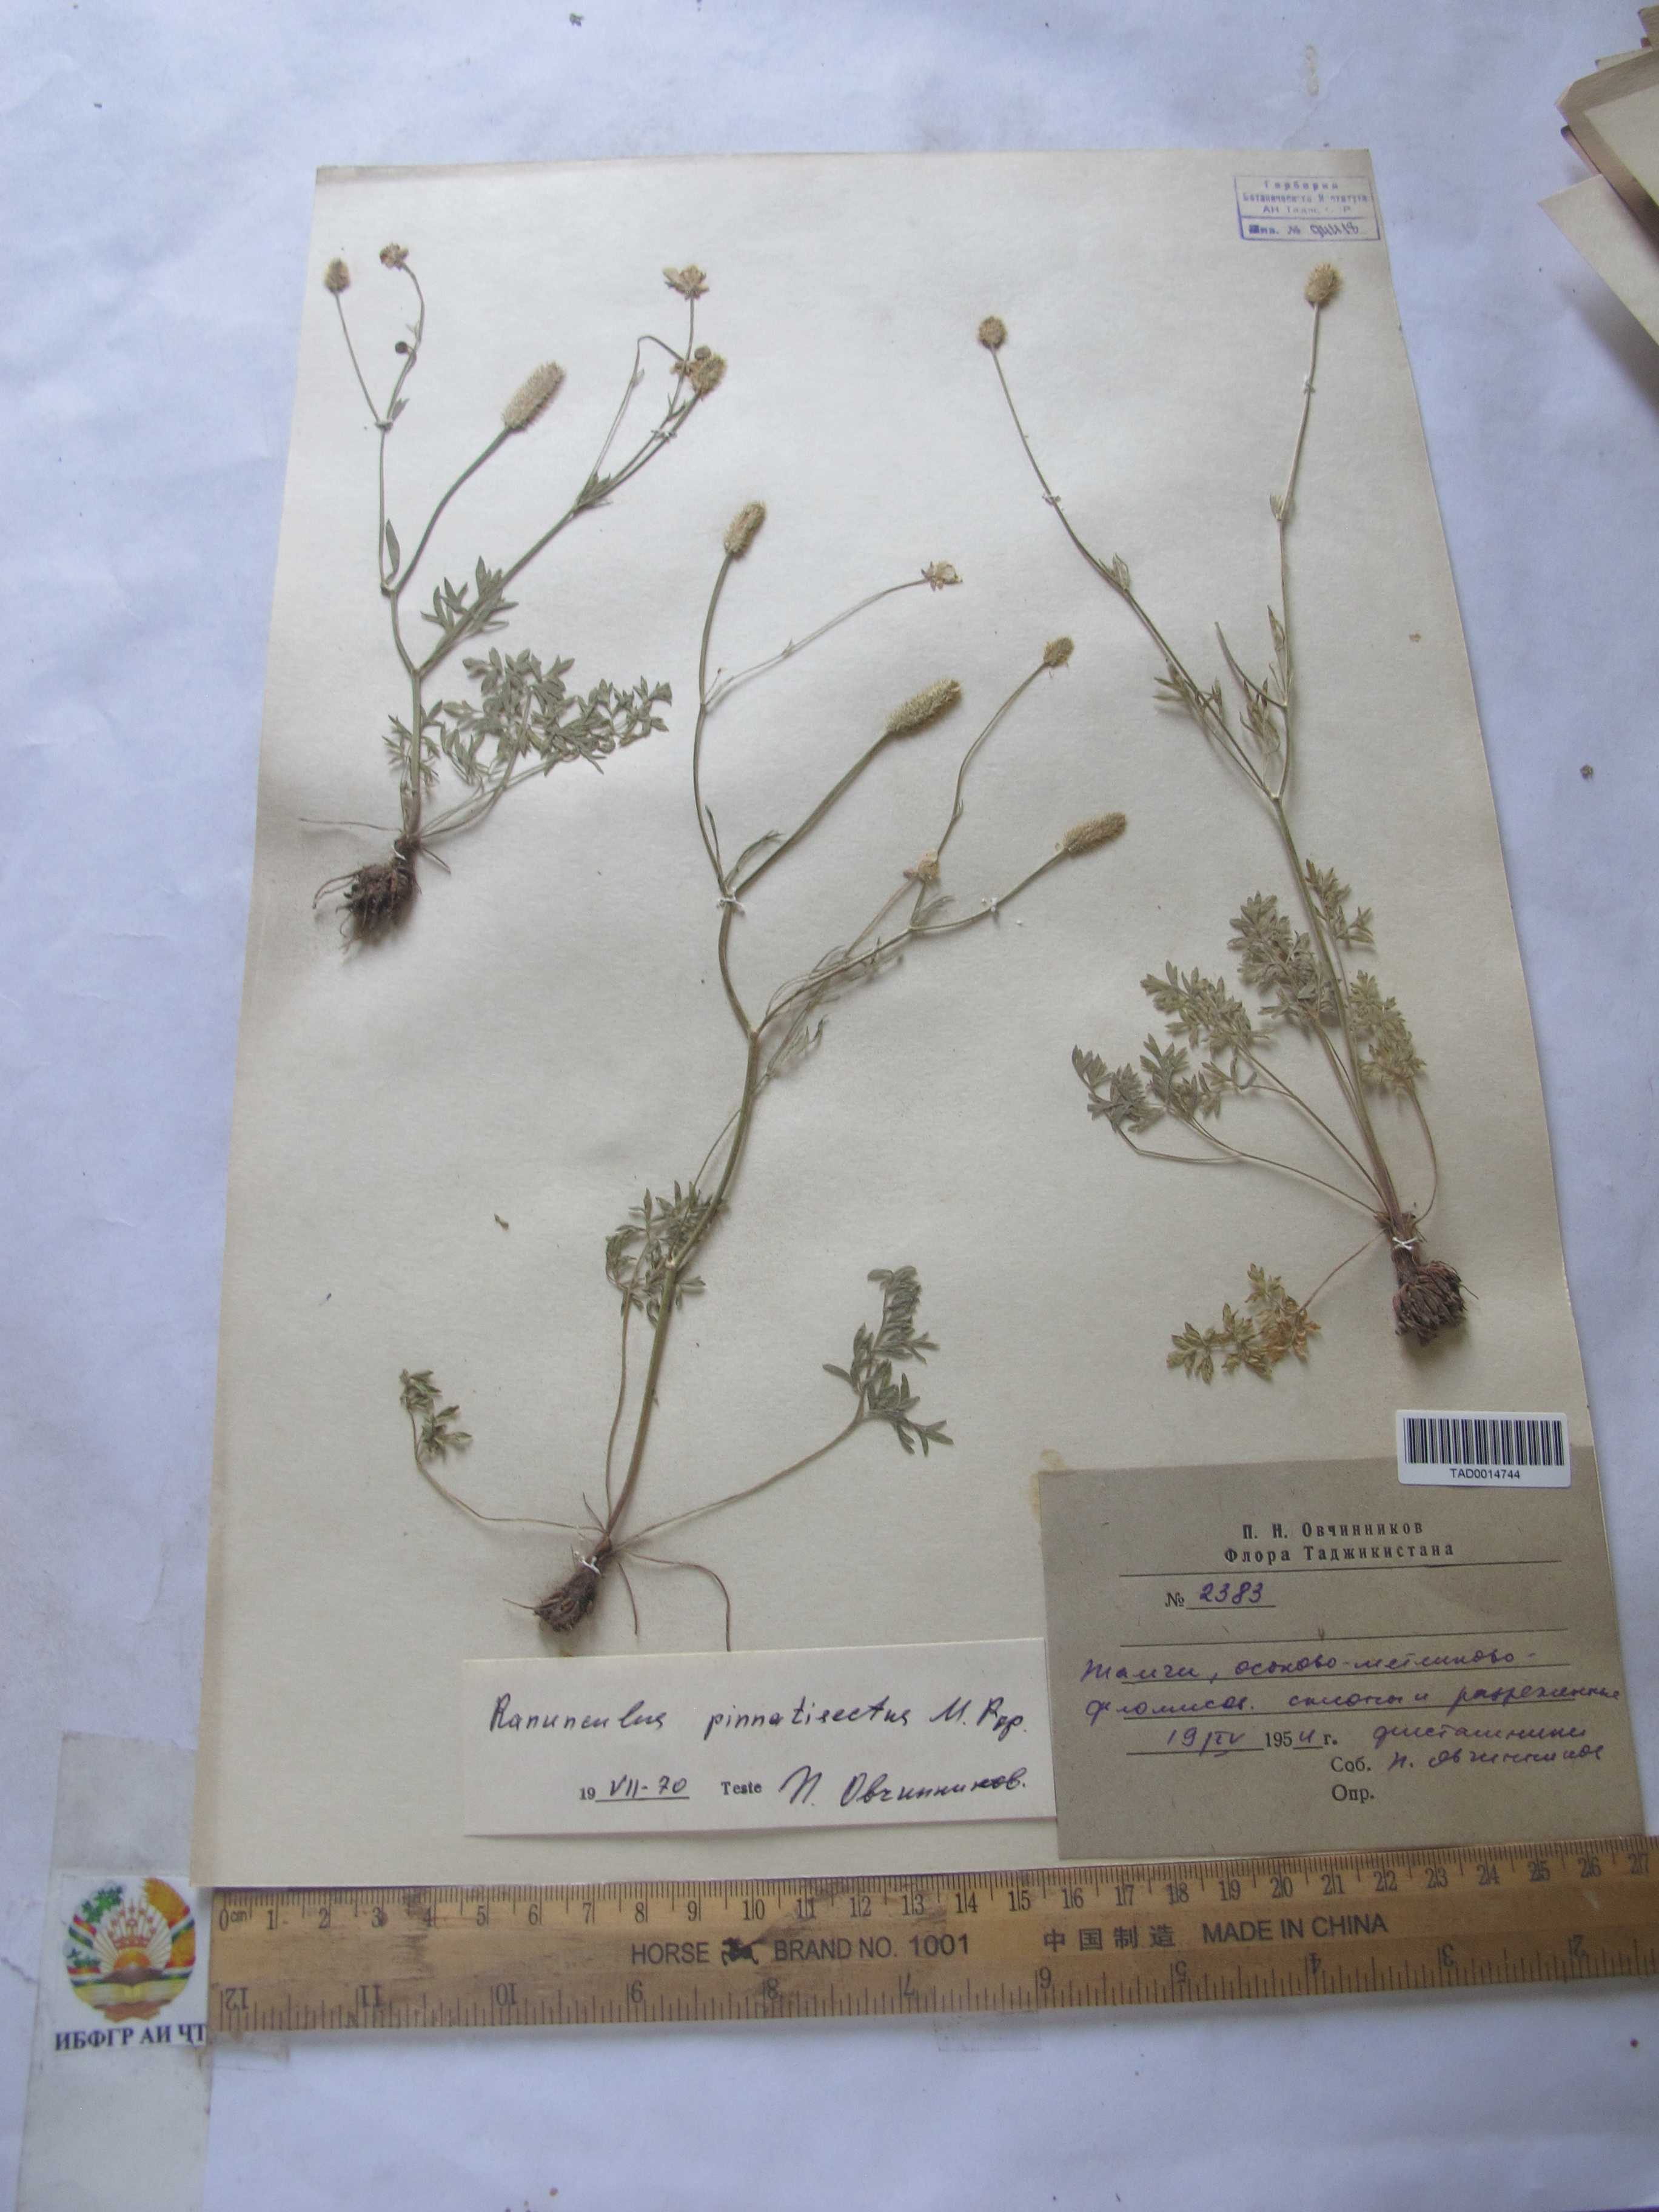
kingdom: Plantae
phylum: Tracheophyta
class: Magnoliopsida
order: Ranunculales
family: Ranunculaceae
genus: Ranunculus
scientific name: Ranunculus pinnatisectus
